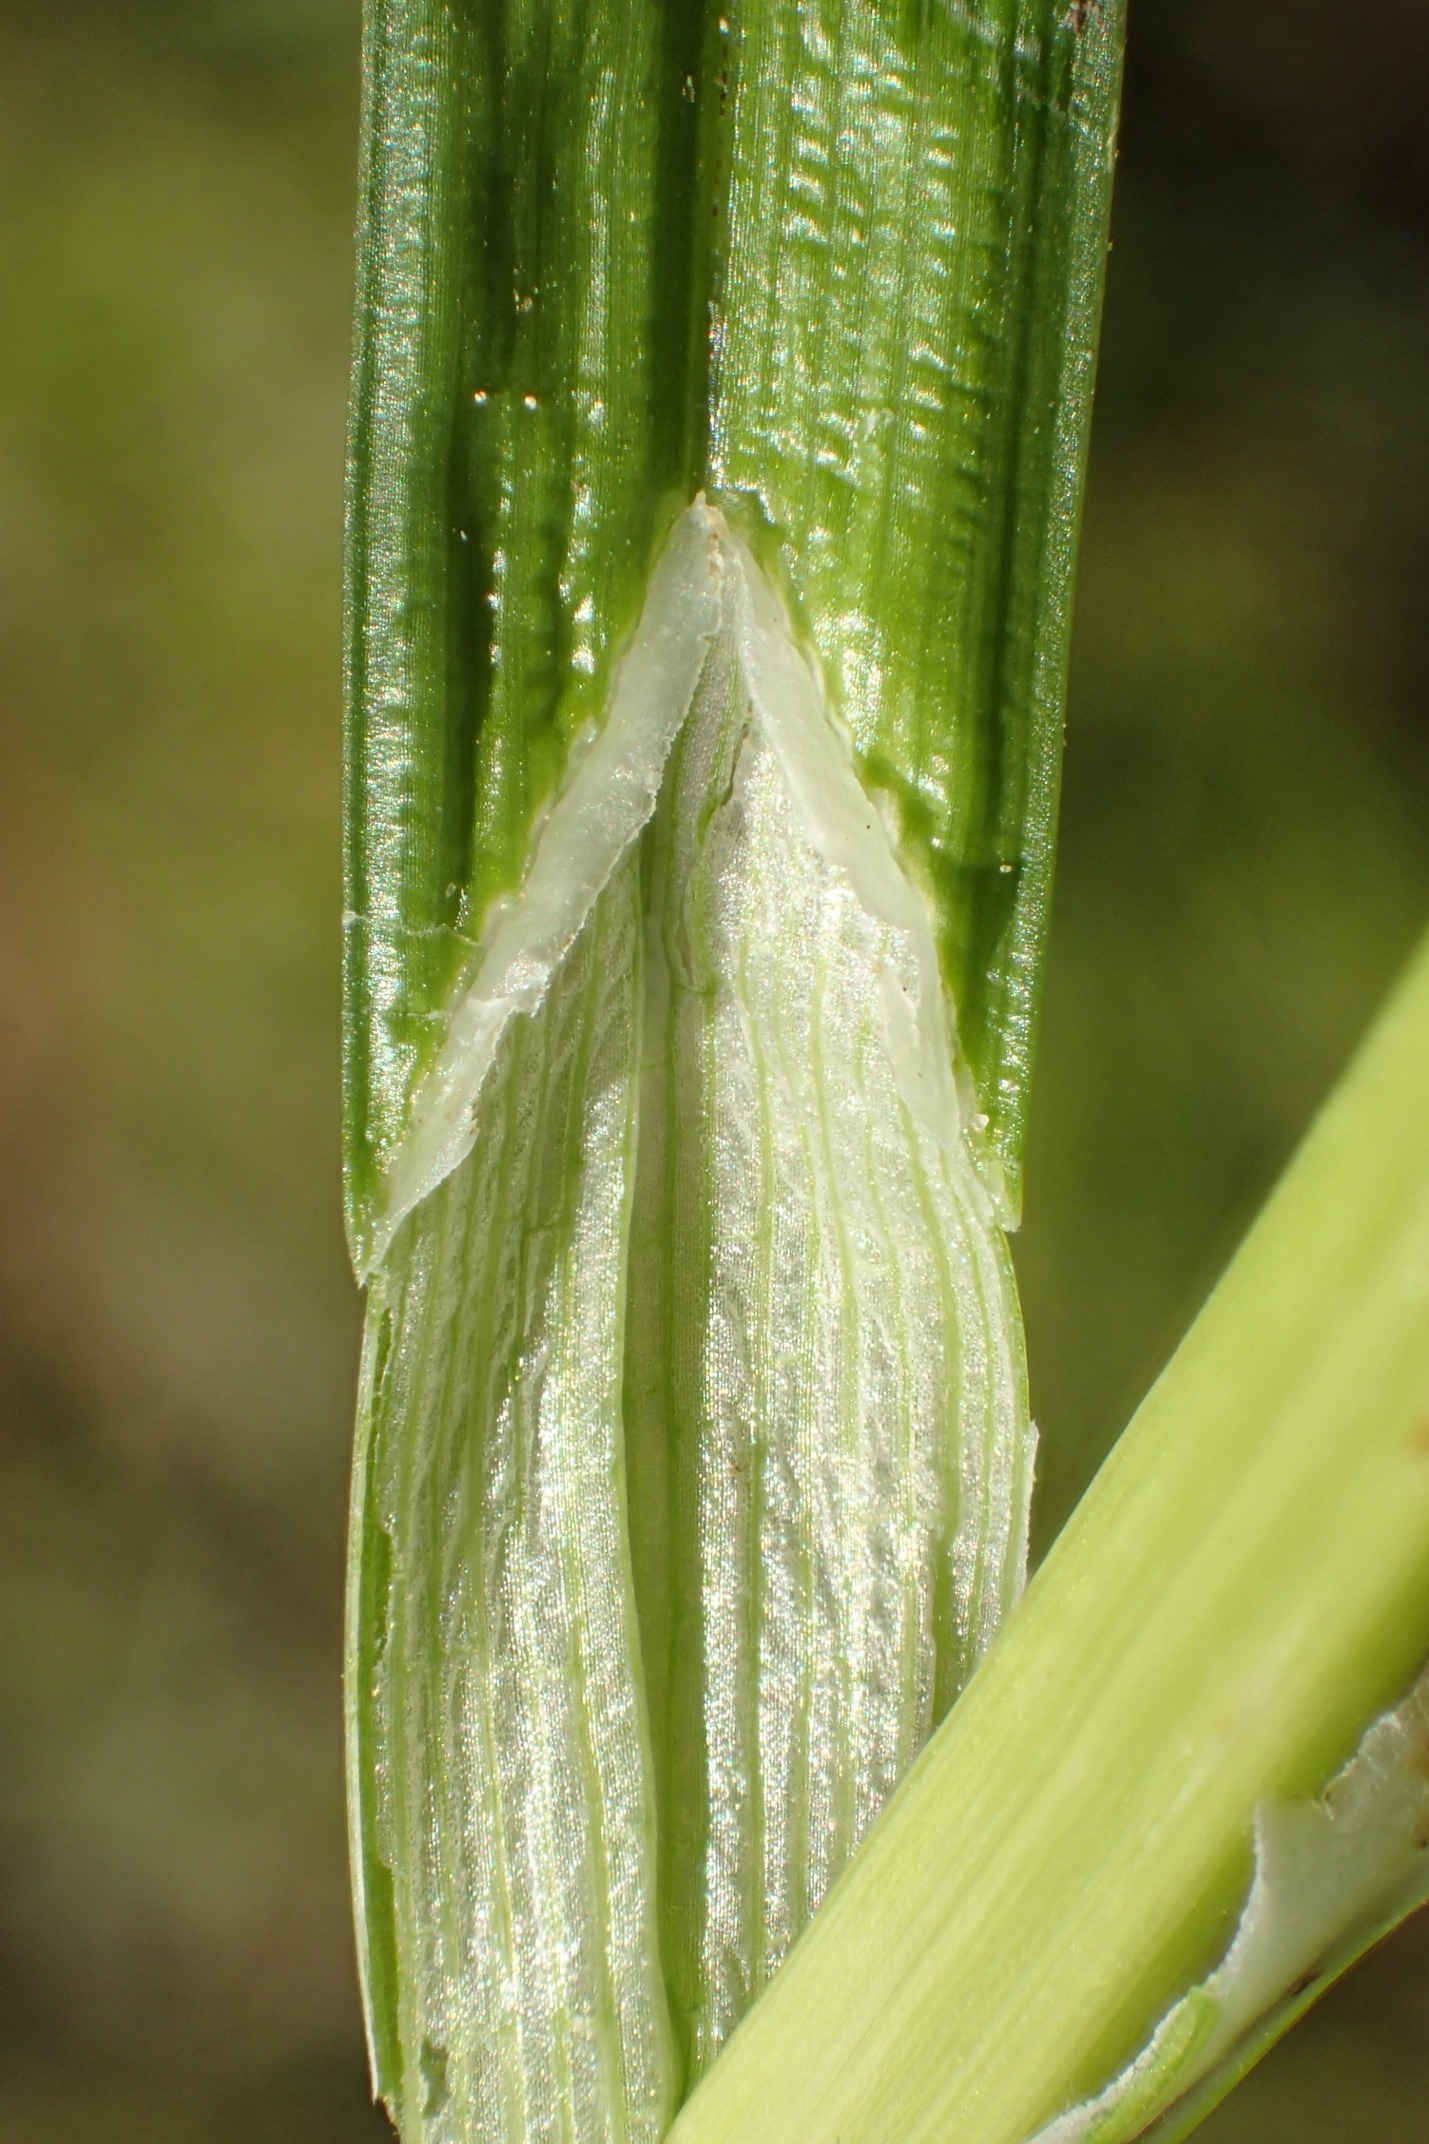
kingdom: Plantae
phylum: Tracheophyta
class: Liliopsida
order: Poales
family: Cyperaceae
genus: Carex
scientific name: Carex otrubae
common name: Sylt-star
